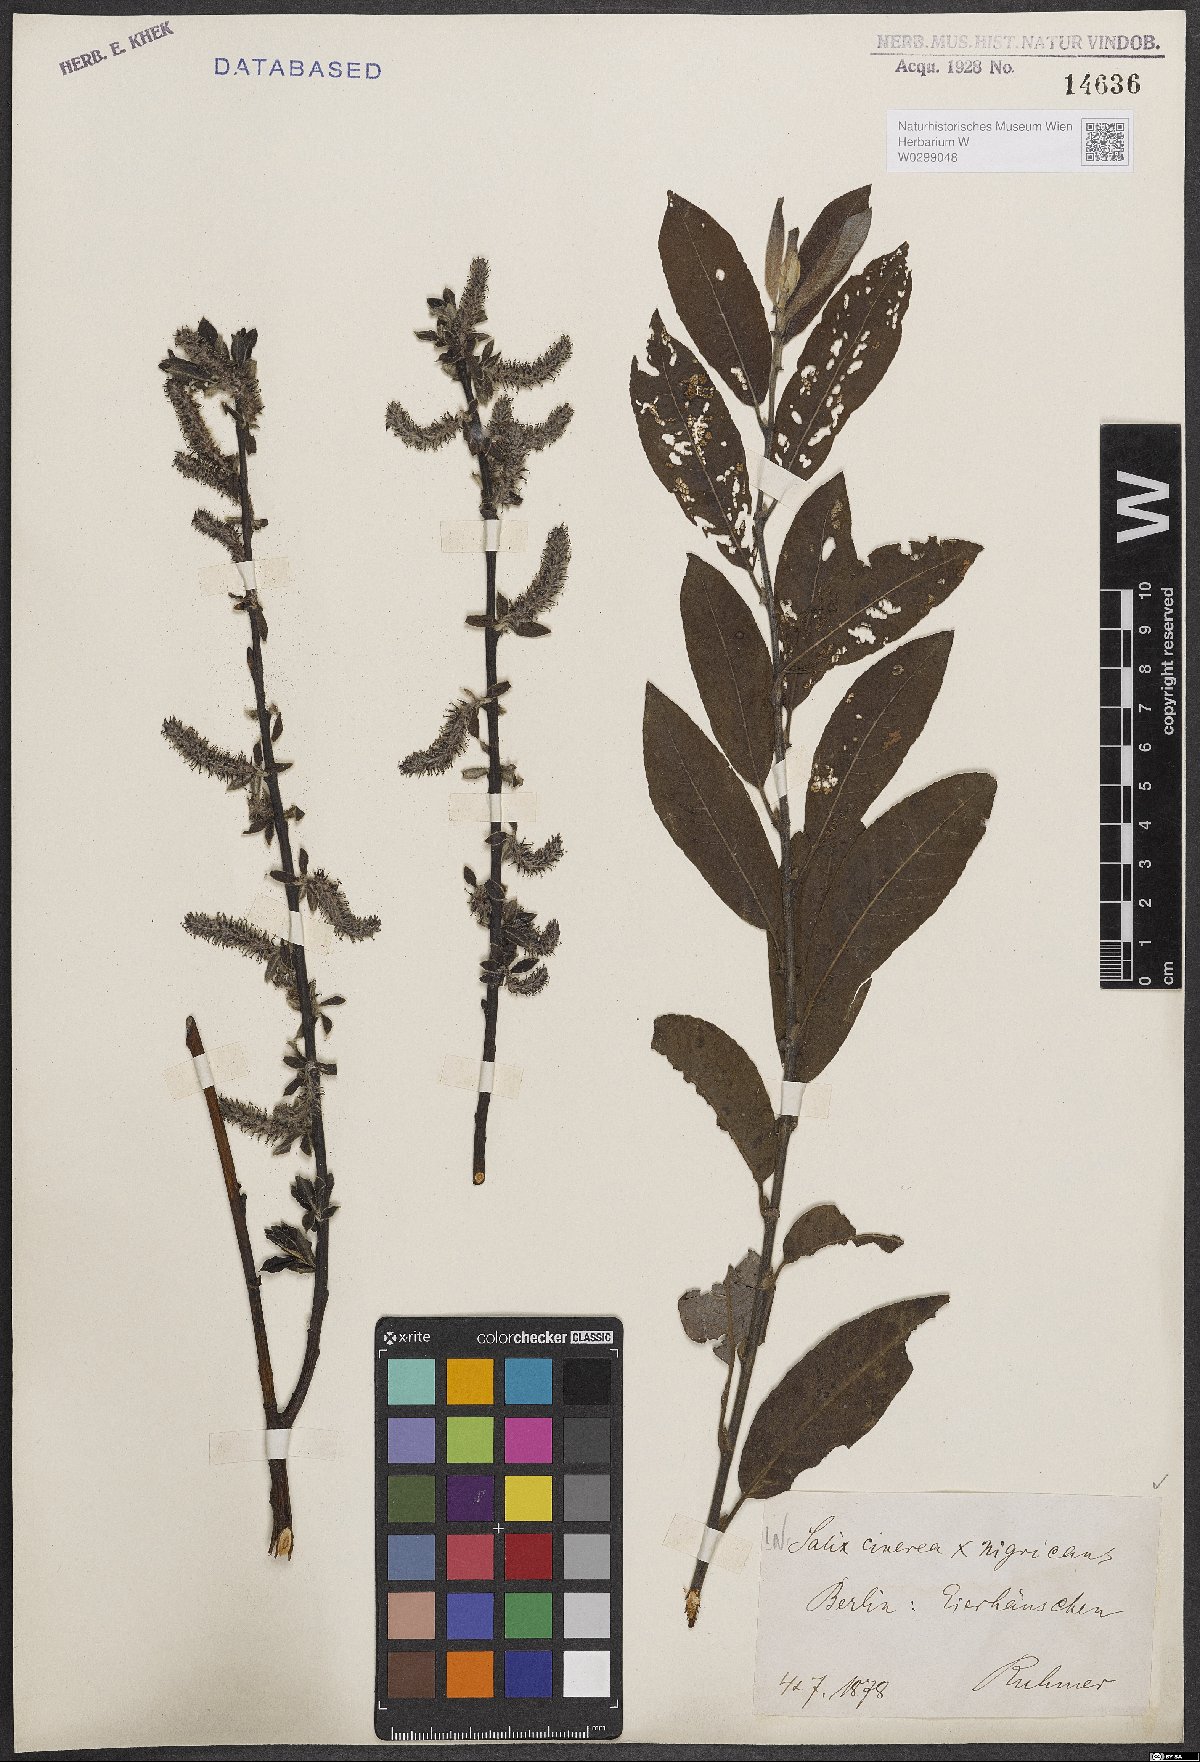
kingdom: Plantae
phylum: Tracheophyta
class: Magnoliopsida
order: Malpighiales
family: Salicaceae
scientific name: Salicaceae
